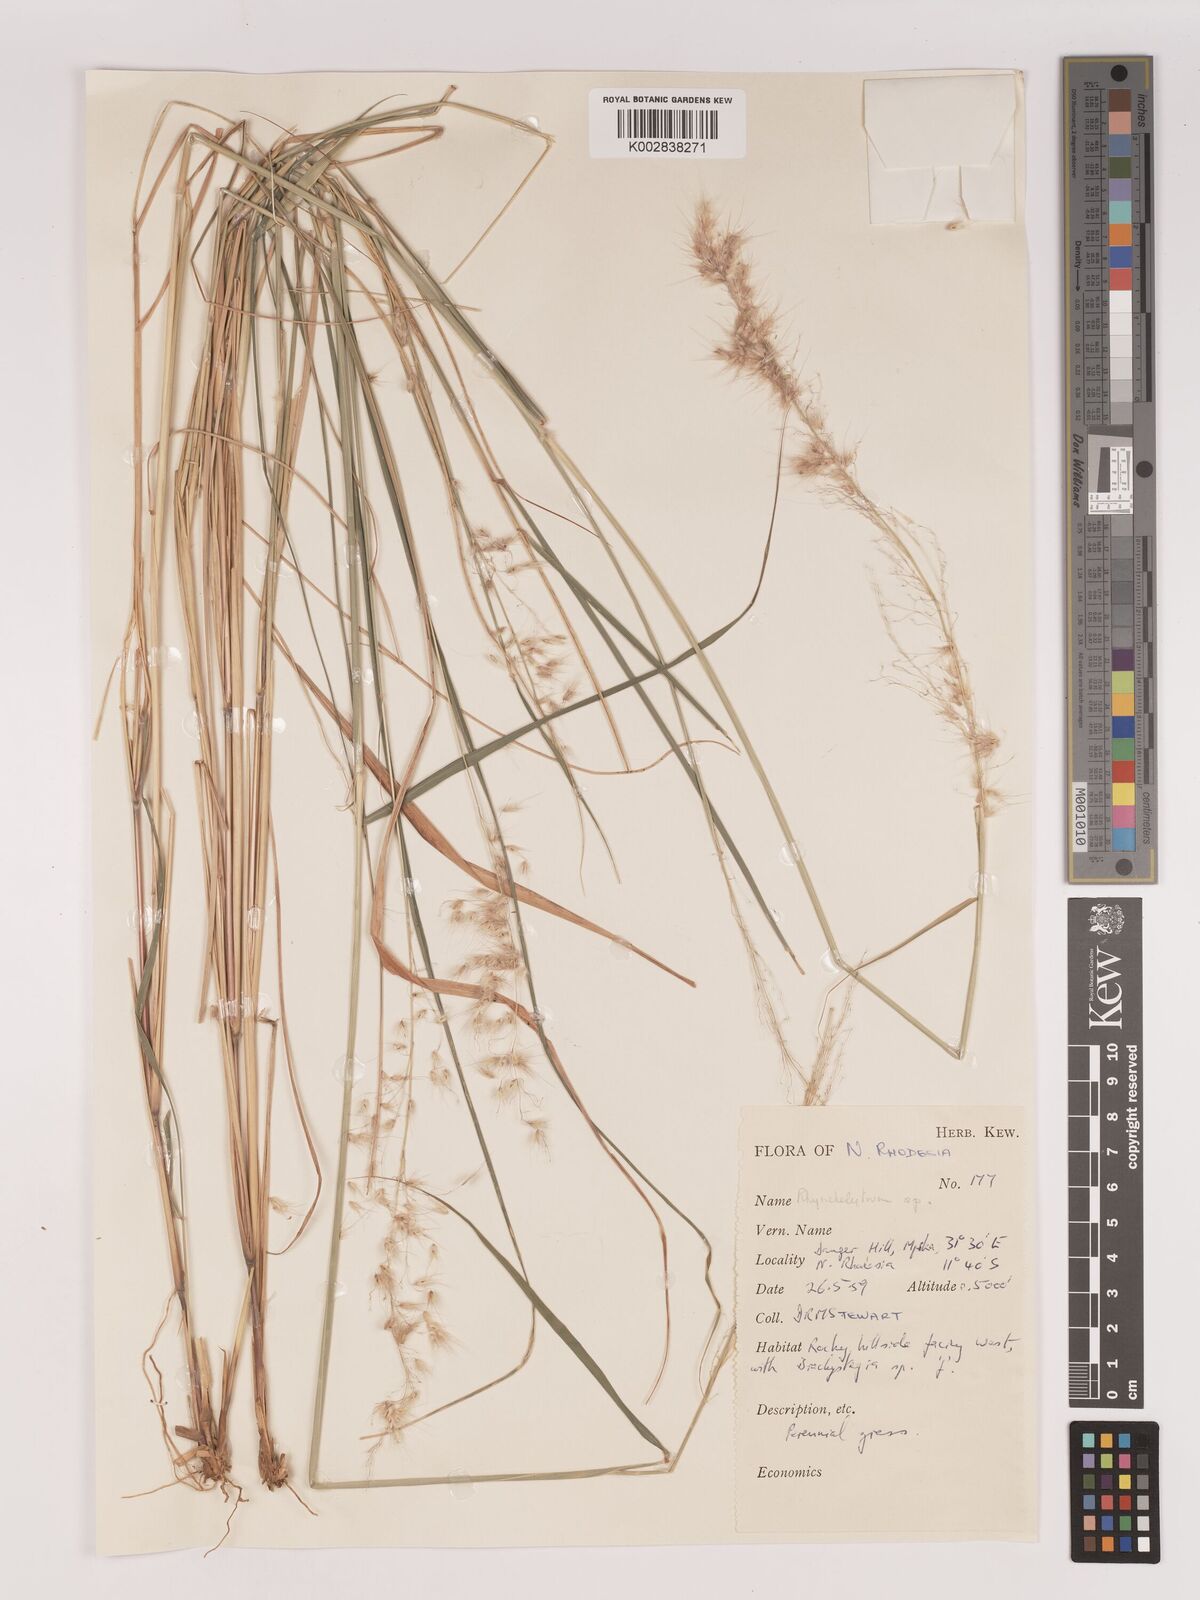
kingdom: Plantae
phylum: Tracheophyta
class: Liliopsida
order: Poales
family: Poaceae
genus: Melinis
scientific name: Melinis repens
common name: Rose natal grass
